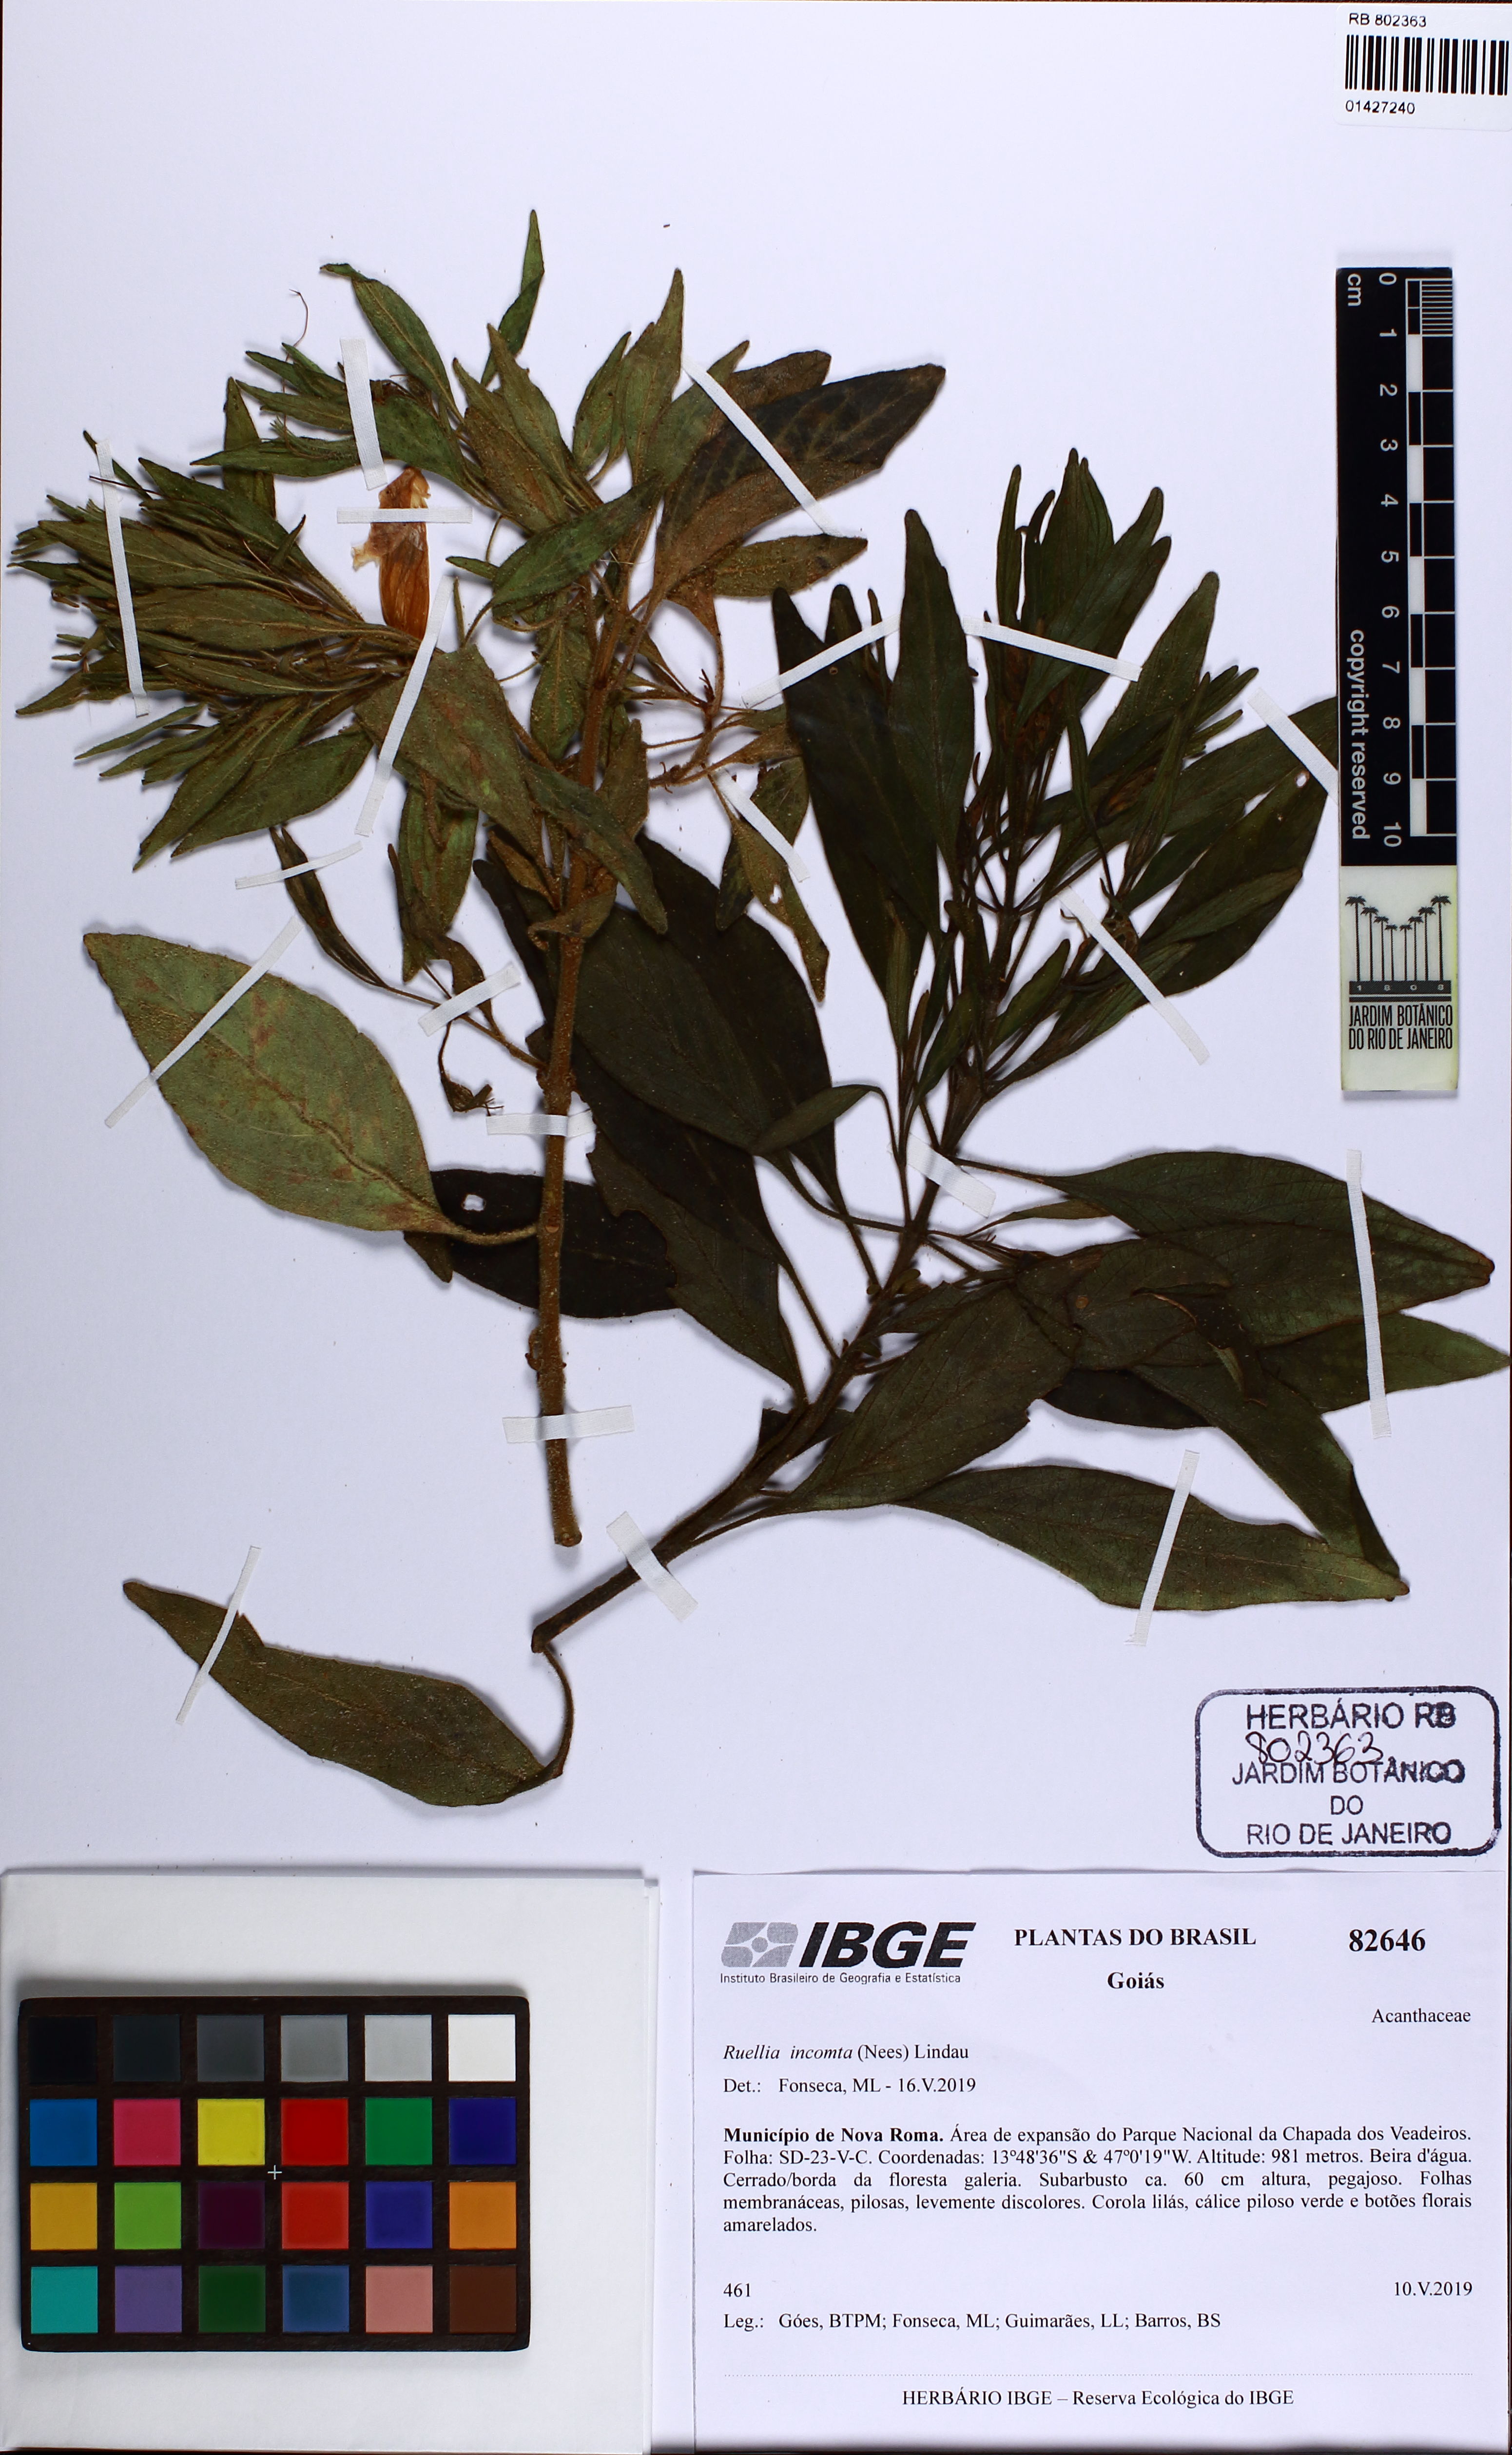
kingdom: Plantae
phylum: Tracheophyta
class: Magnoliopsida
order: Lamiales
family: Acanthaceae
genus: Ruellia
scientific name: Ruellia incomta
